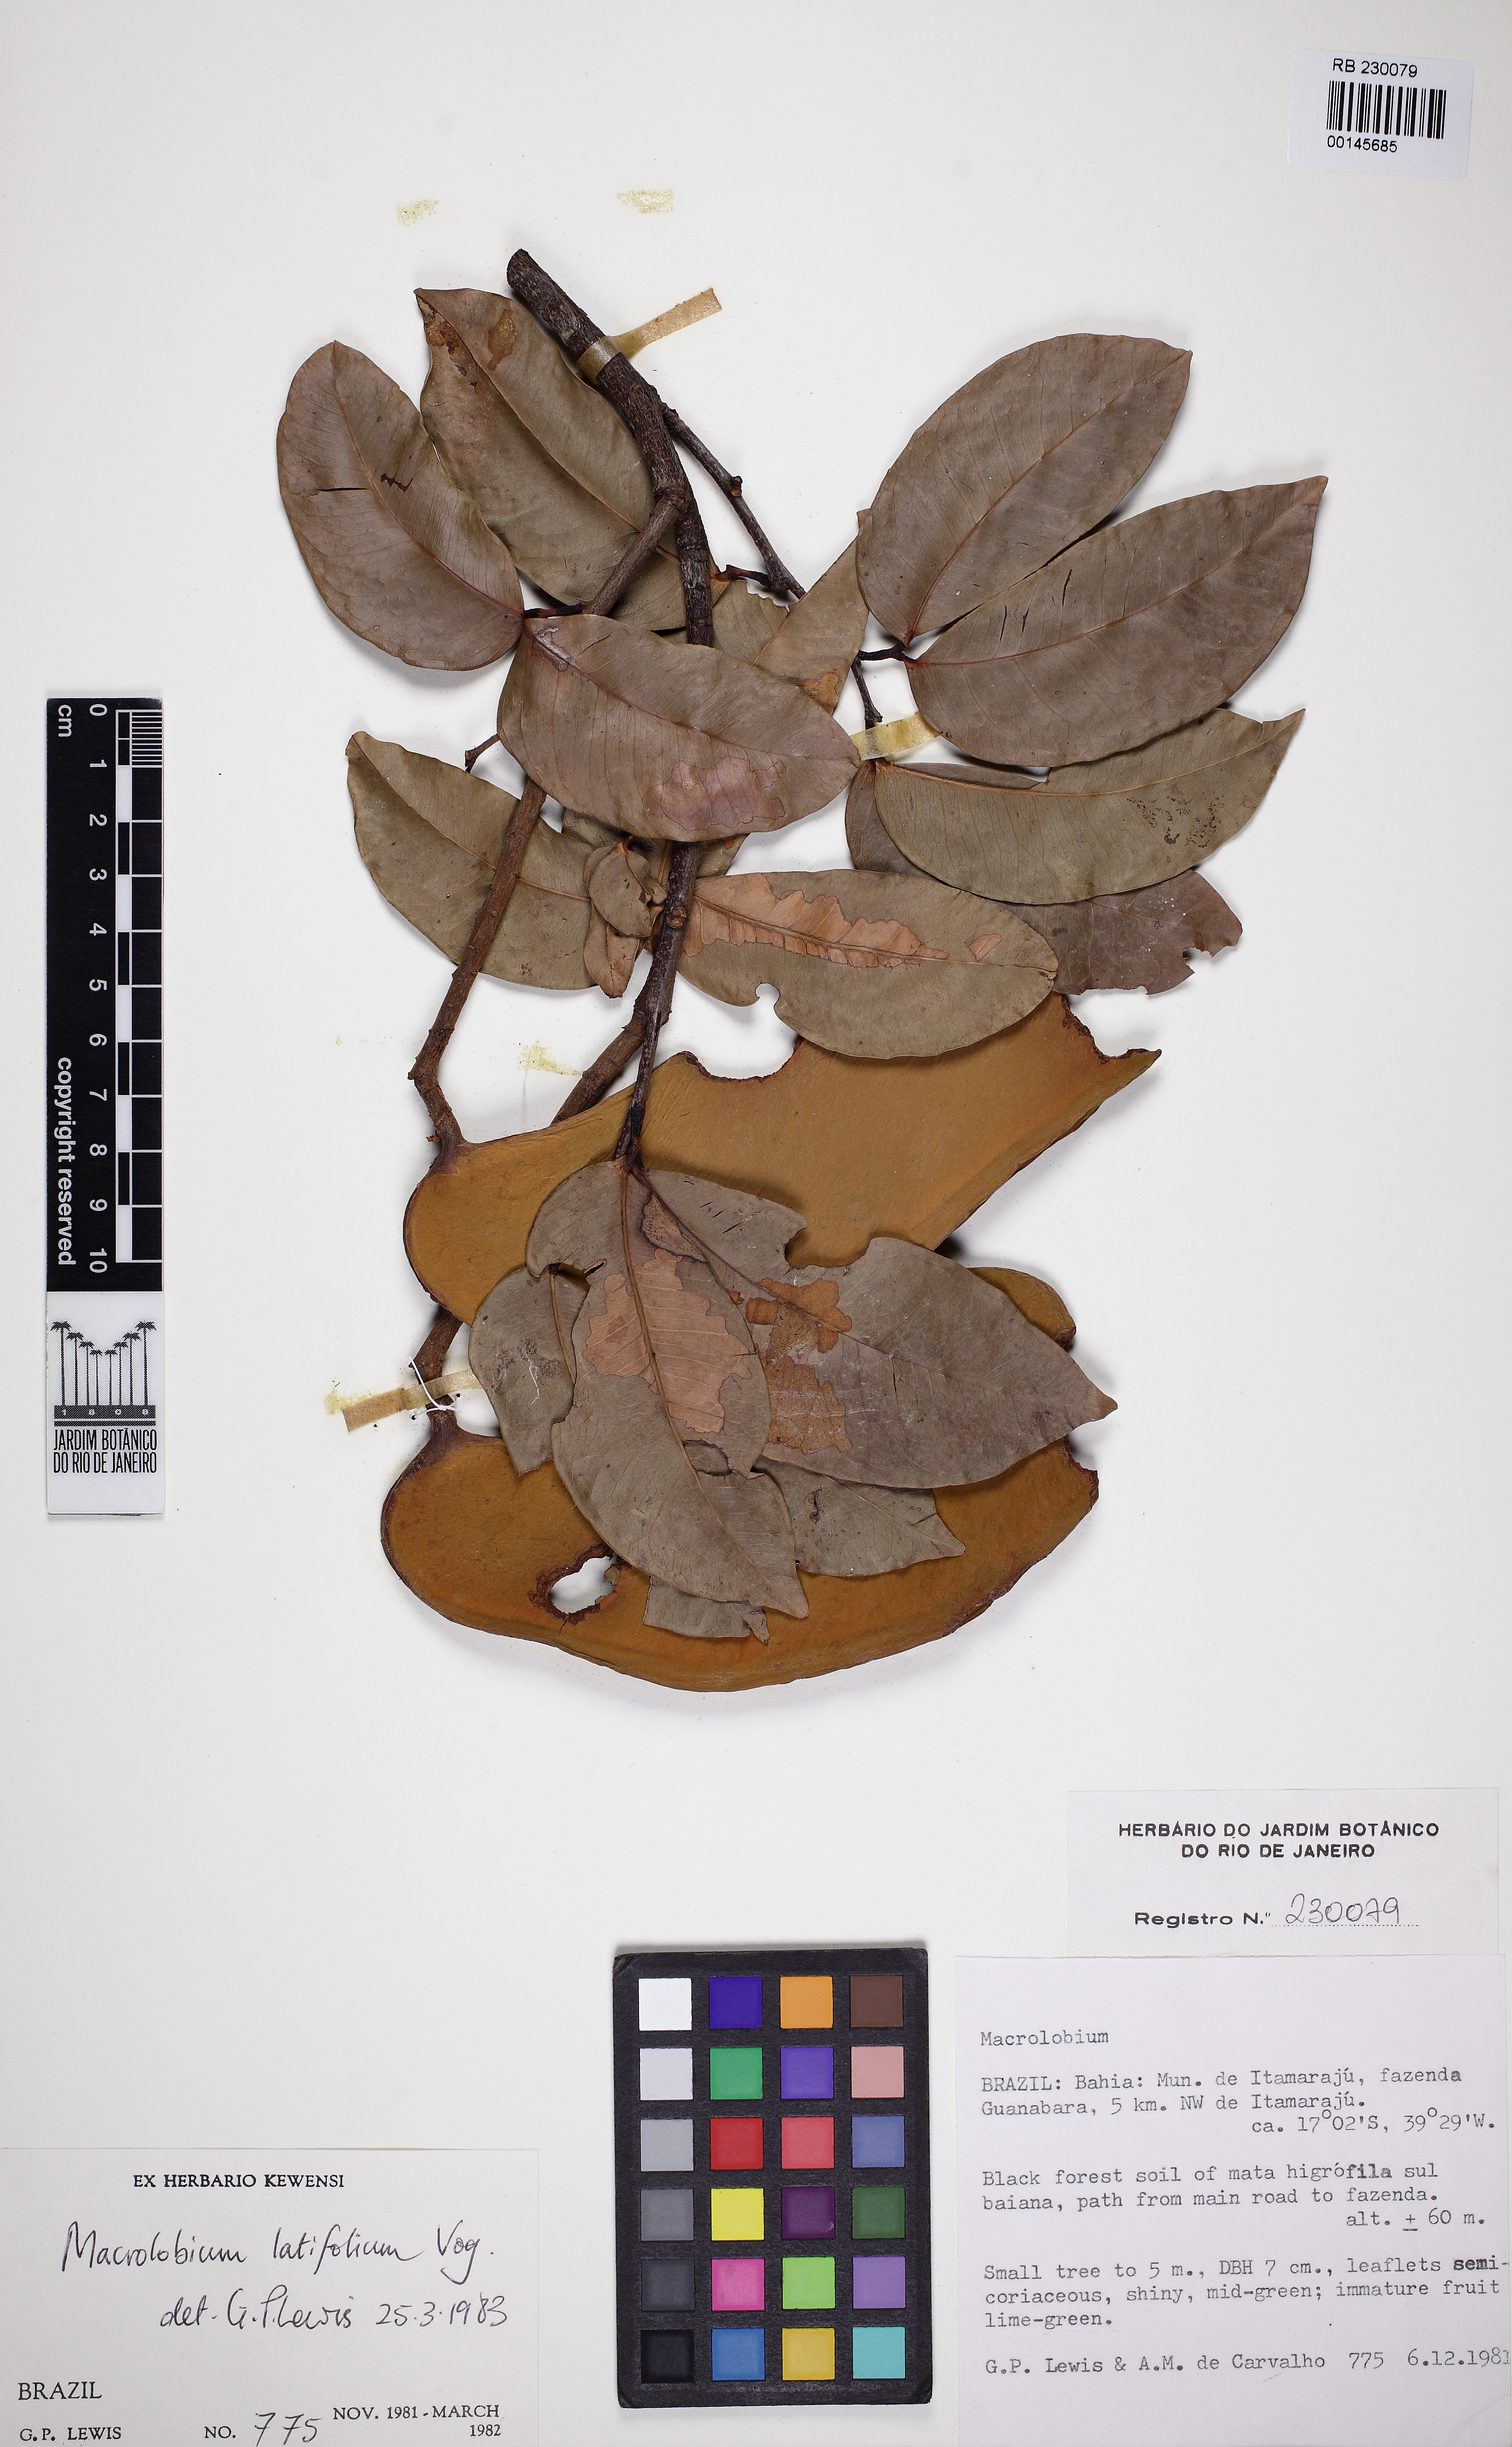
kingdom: Plantae
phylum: Tracheophyta
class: Magnoliopsida
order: Fabales
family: Fabaceae
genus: Macrolobium
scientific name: Macrolobium
